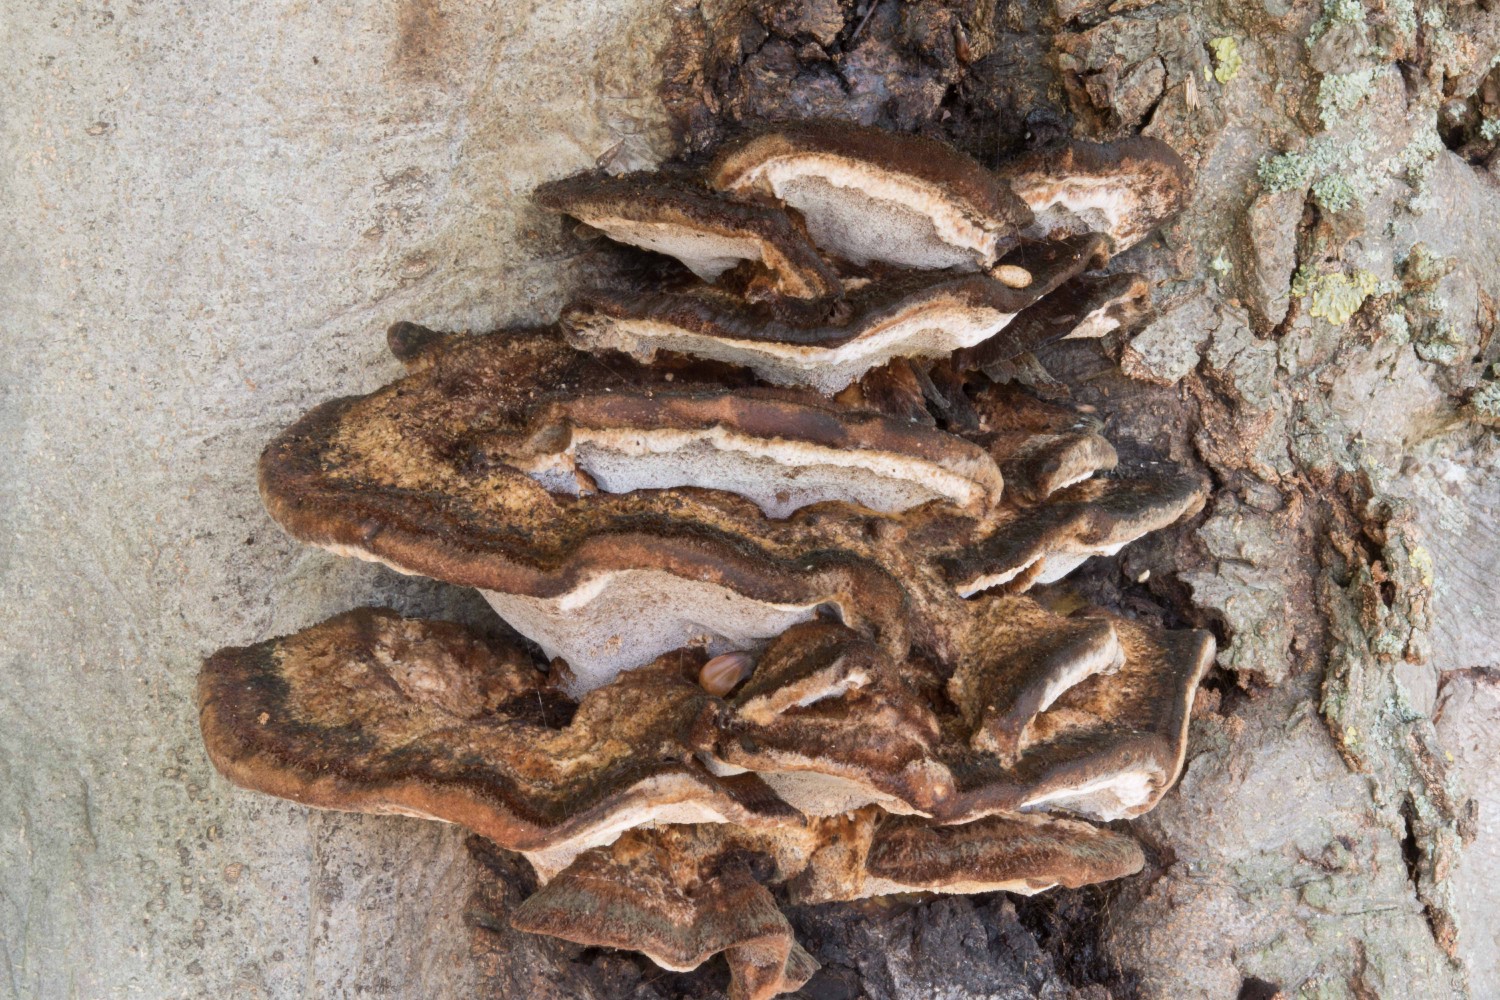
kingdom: Fungi
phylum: Basidiomycota
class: Agaricomycetes
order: Hymenochaetales
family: Hymenochaetaceae
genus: Inonotus
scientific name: Inonotus cuticularis
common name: kroghåret spejlporesvamp
